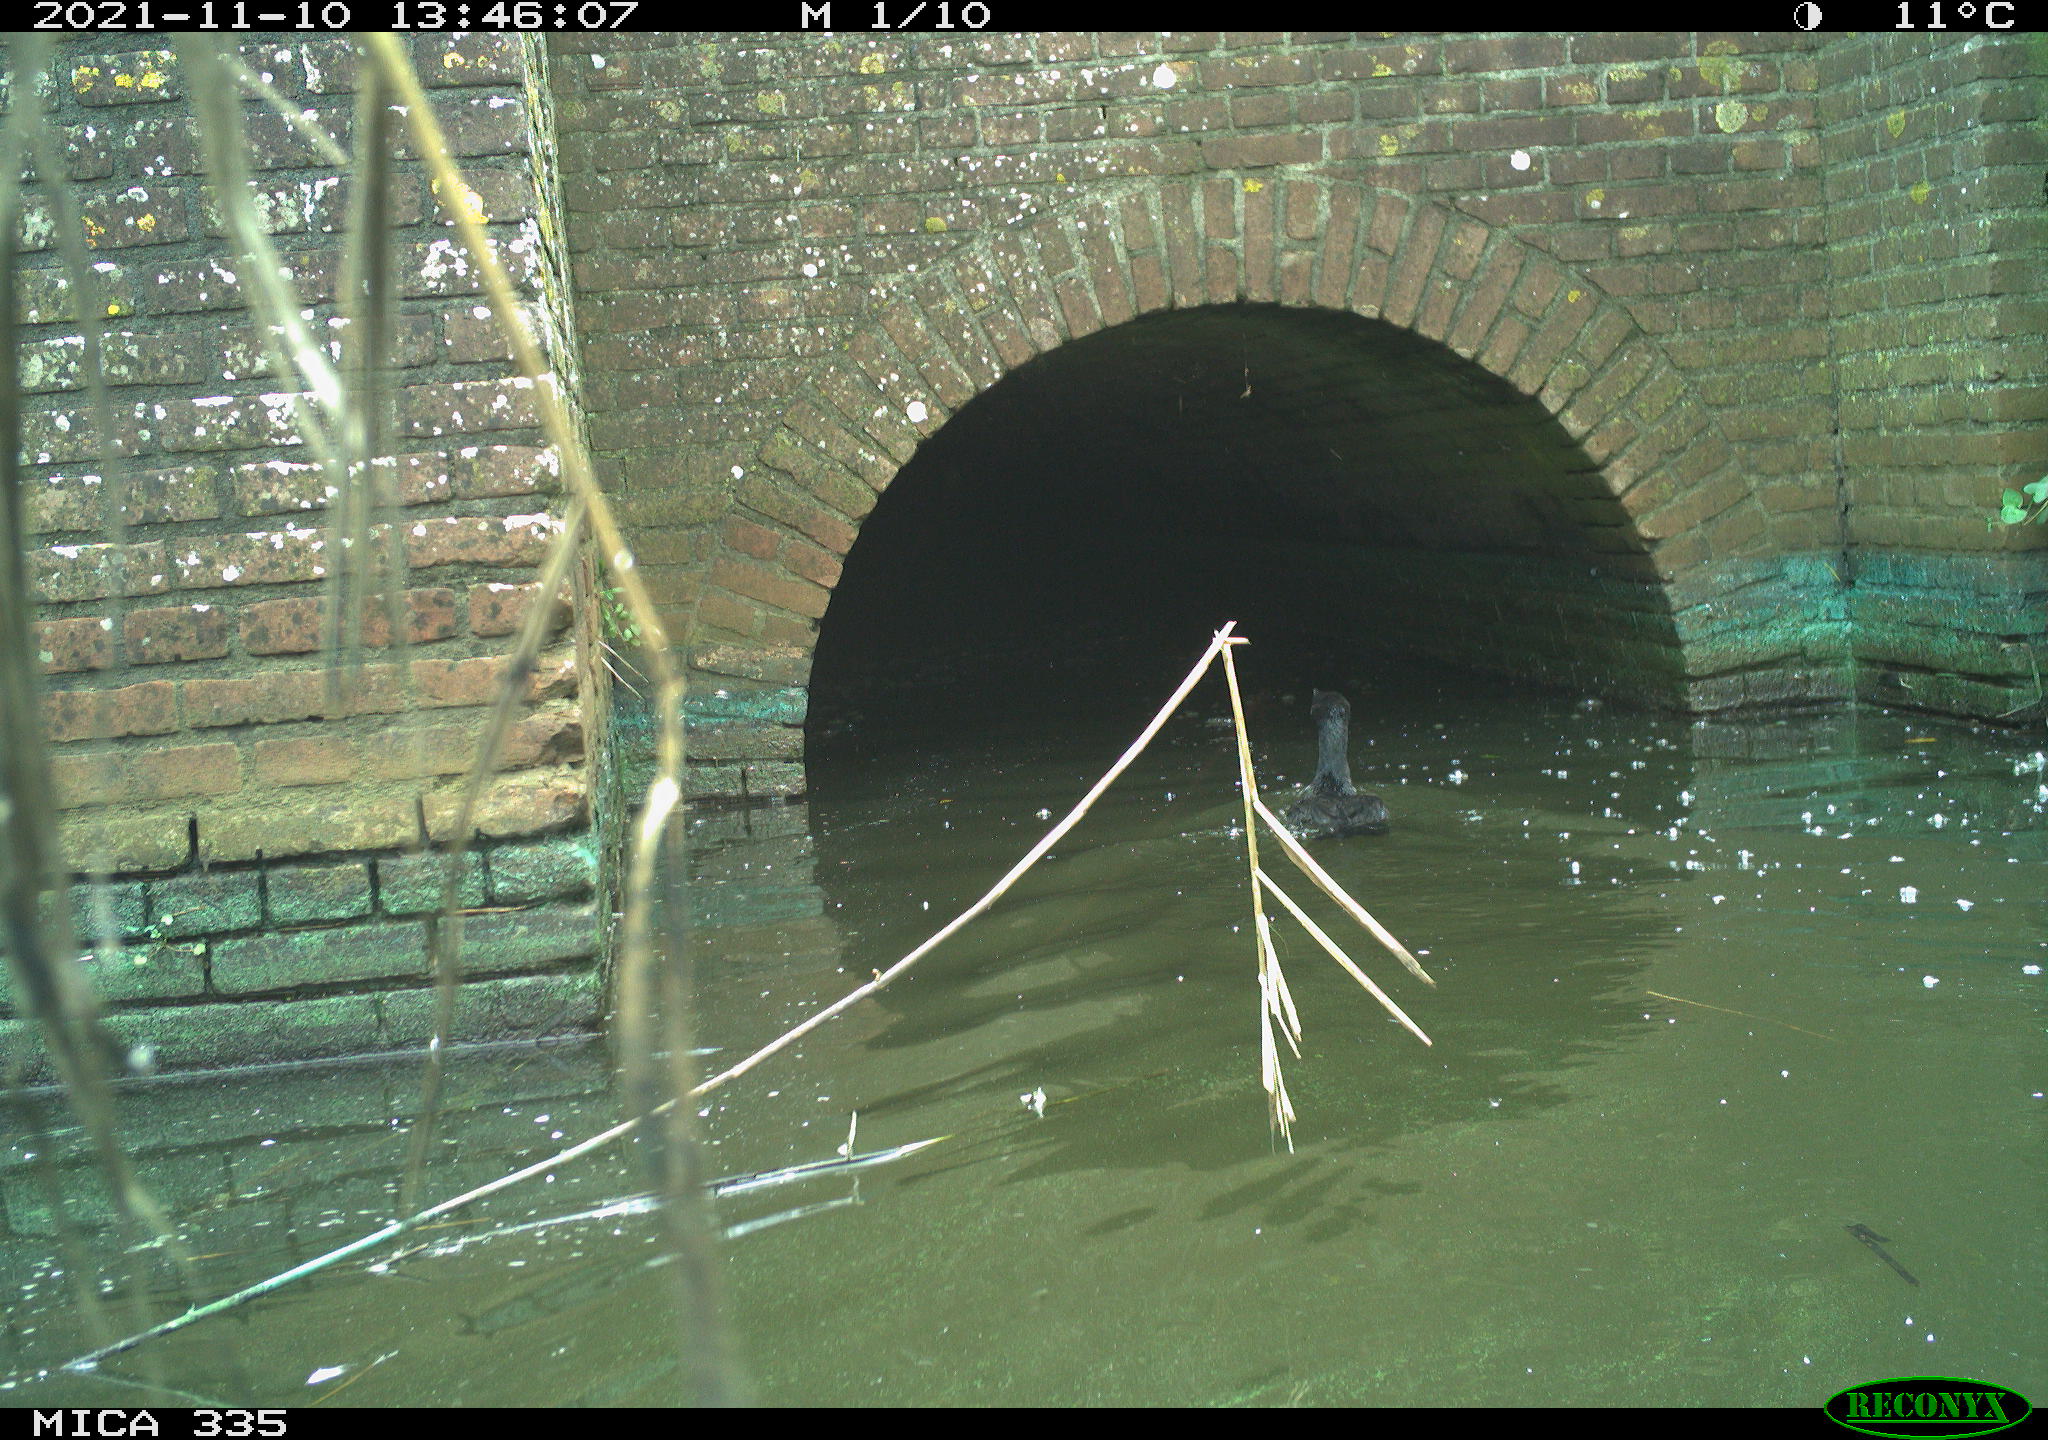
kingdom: Animalia
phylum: Chordata
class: Aves
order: Suliformes
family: Phalacrocoracidae
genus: Phalacrocorax
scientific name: Phalacrocorax carbo
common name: Great cormorant
